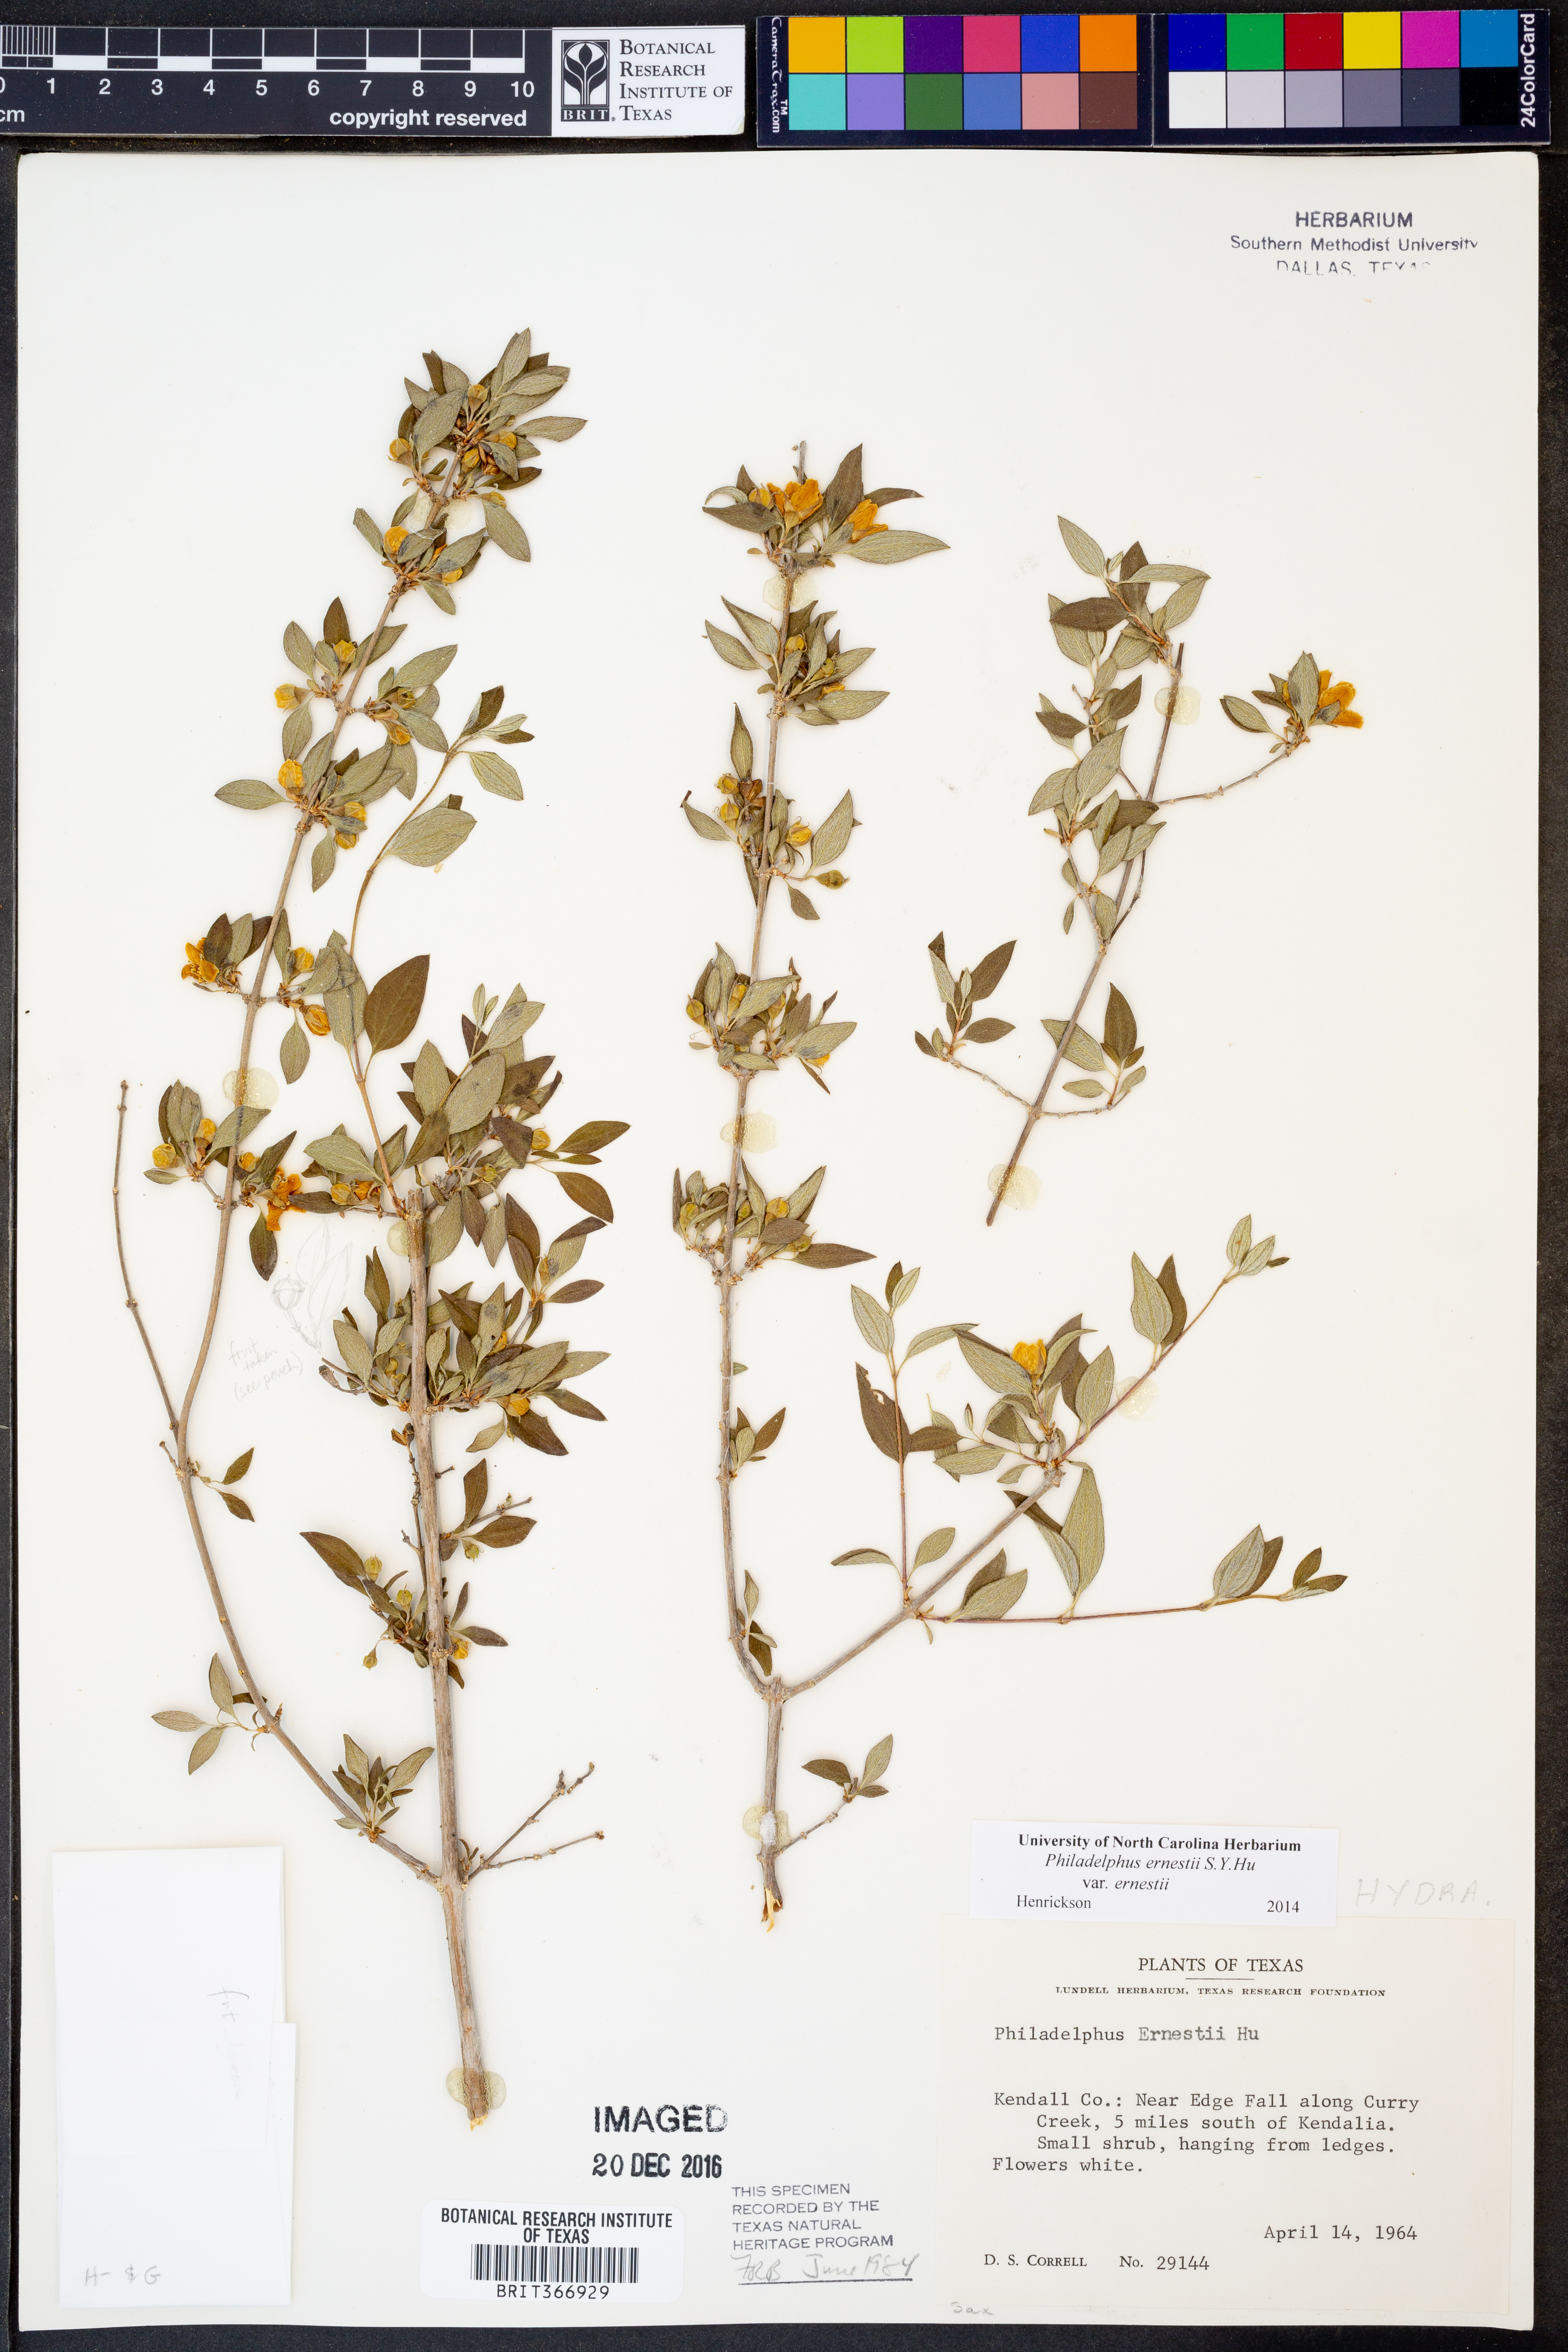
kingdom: Plantae
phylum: Tracheophyta
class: Magnoliopsida
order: Cornales
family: Hydrangeaceae
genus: Philadelphus
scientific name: Philadelphus texensis
